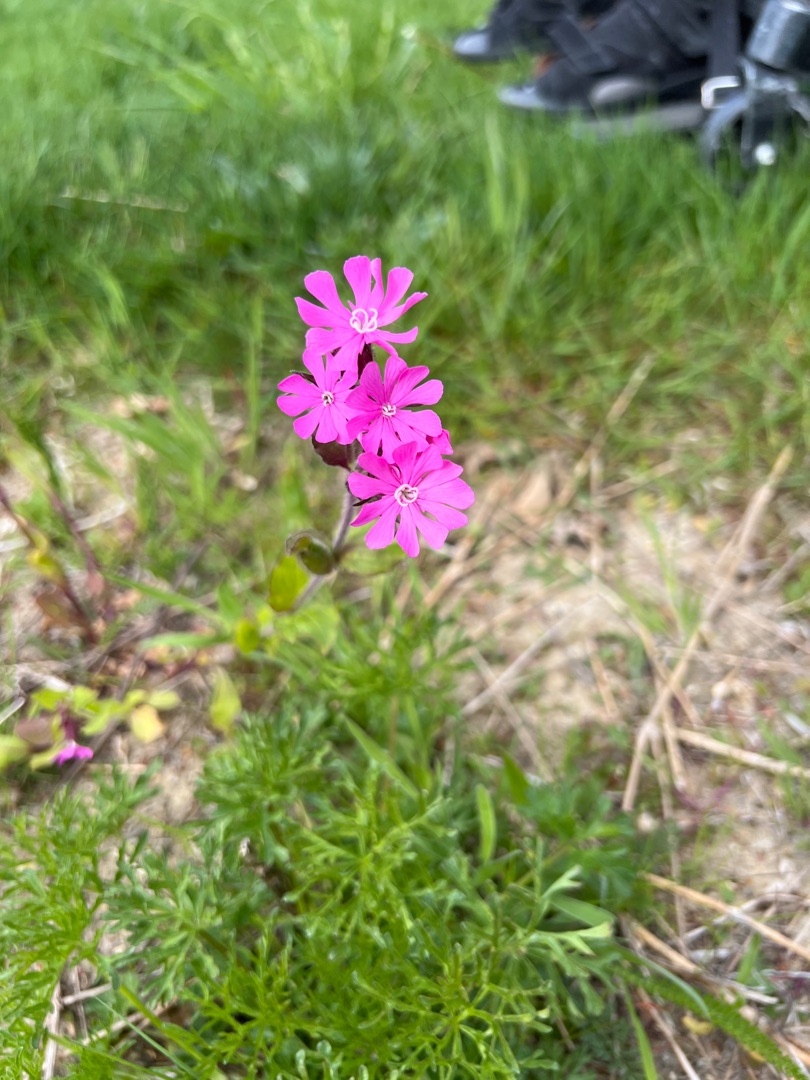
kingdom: Plantae
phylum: Tracheophyta
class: Magnoliopsida
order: Caryophyllales
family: Caryophyllaceae
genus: Silene
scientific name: Silene dioica
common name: Dagpragtstjerne
